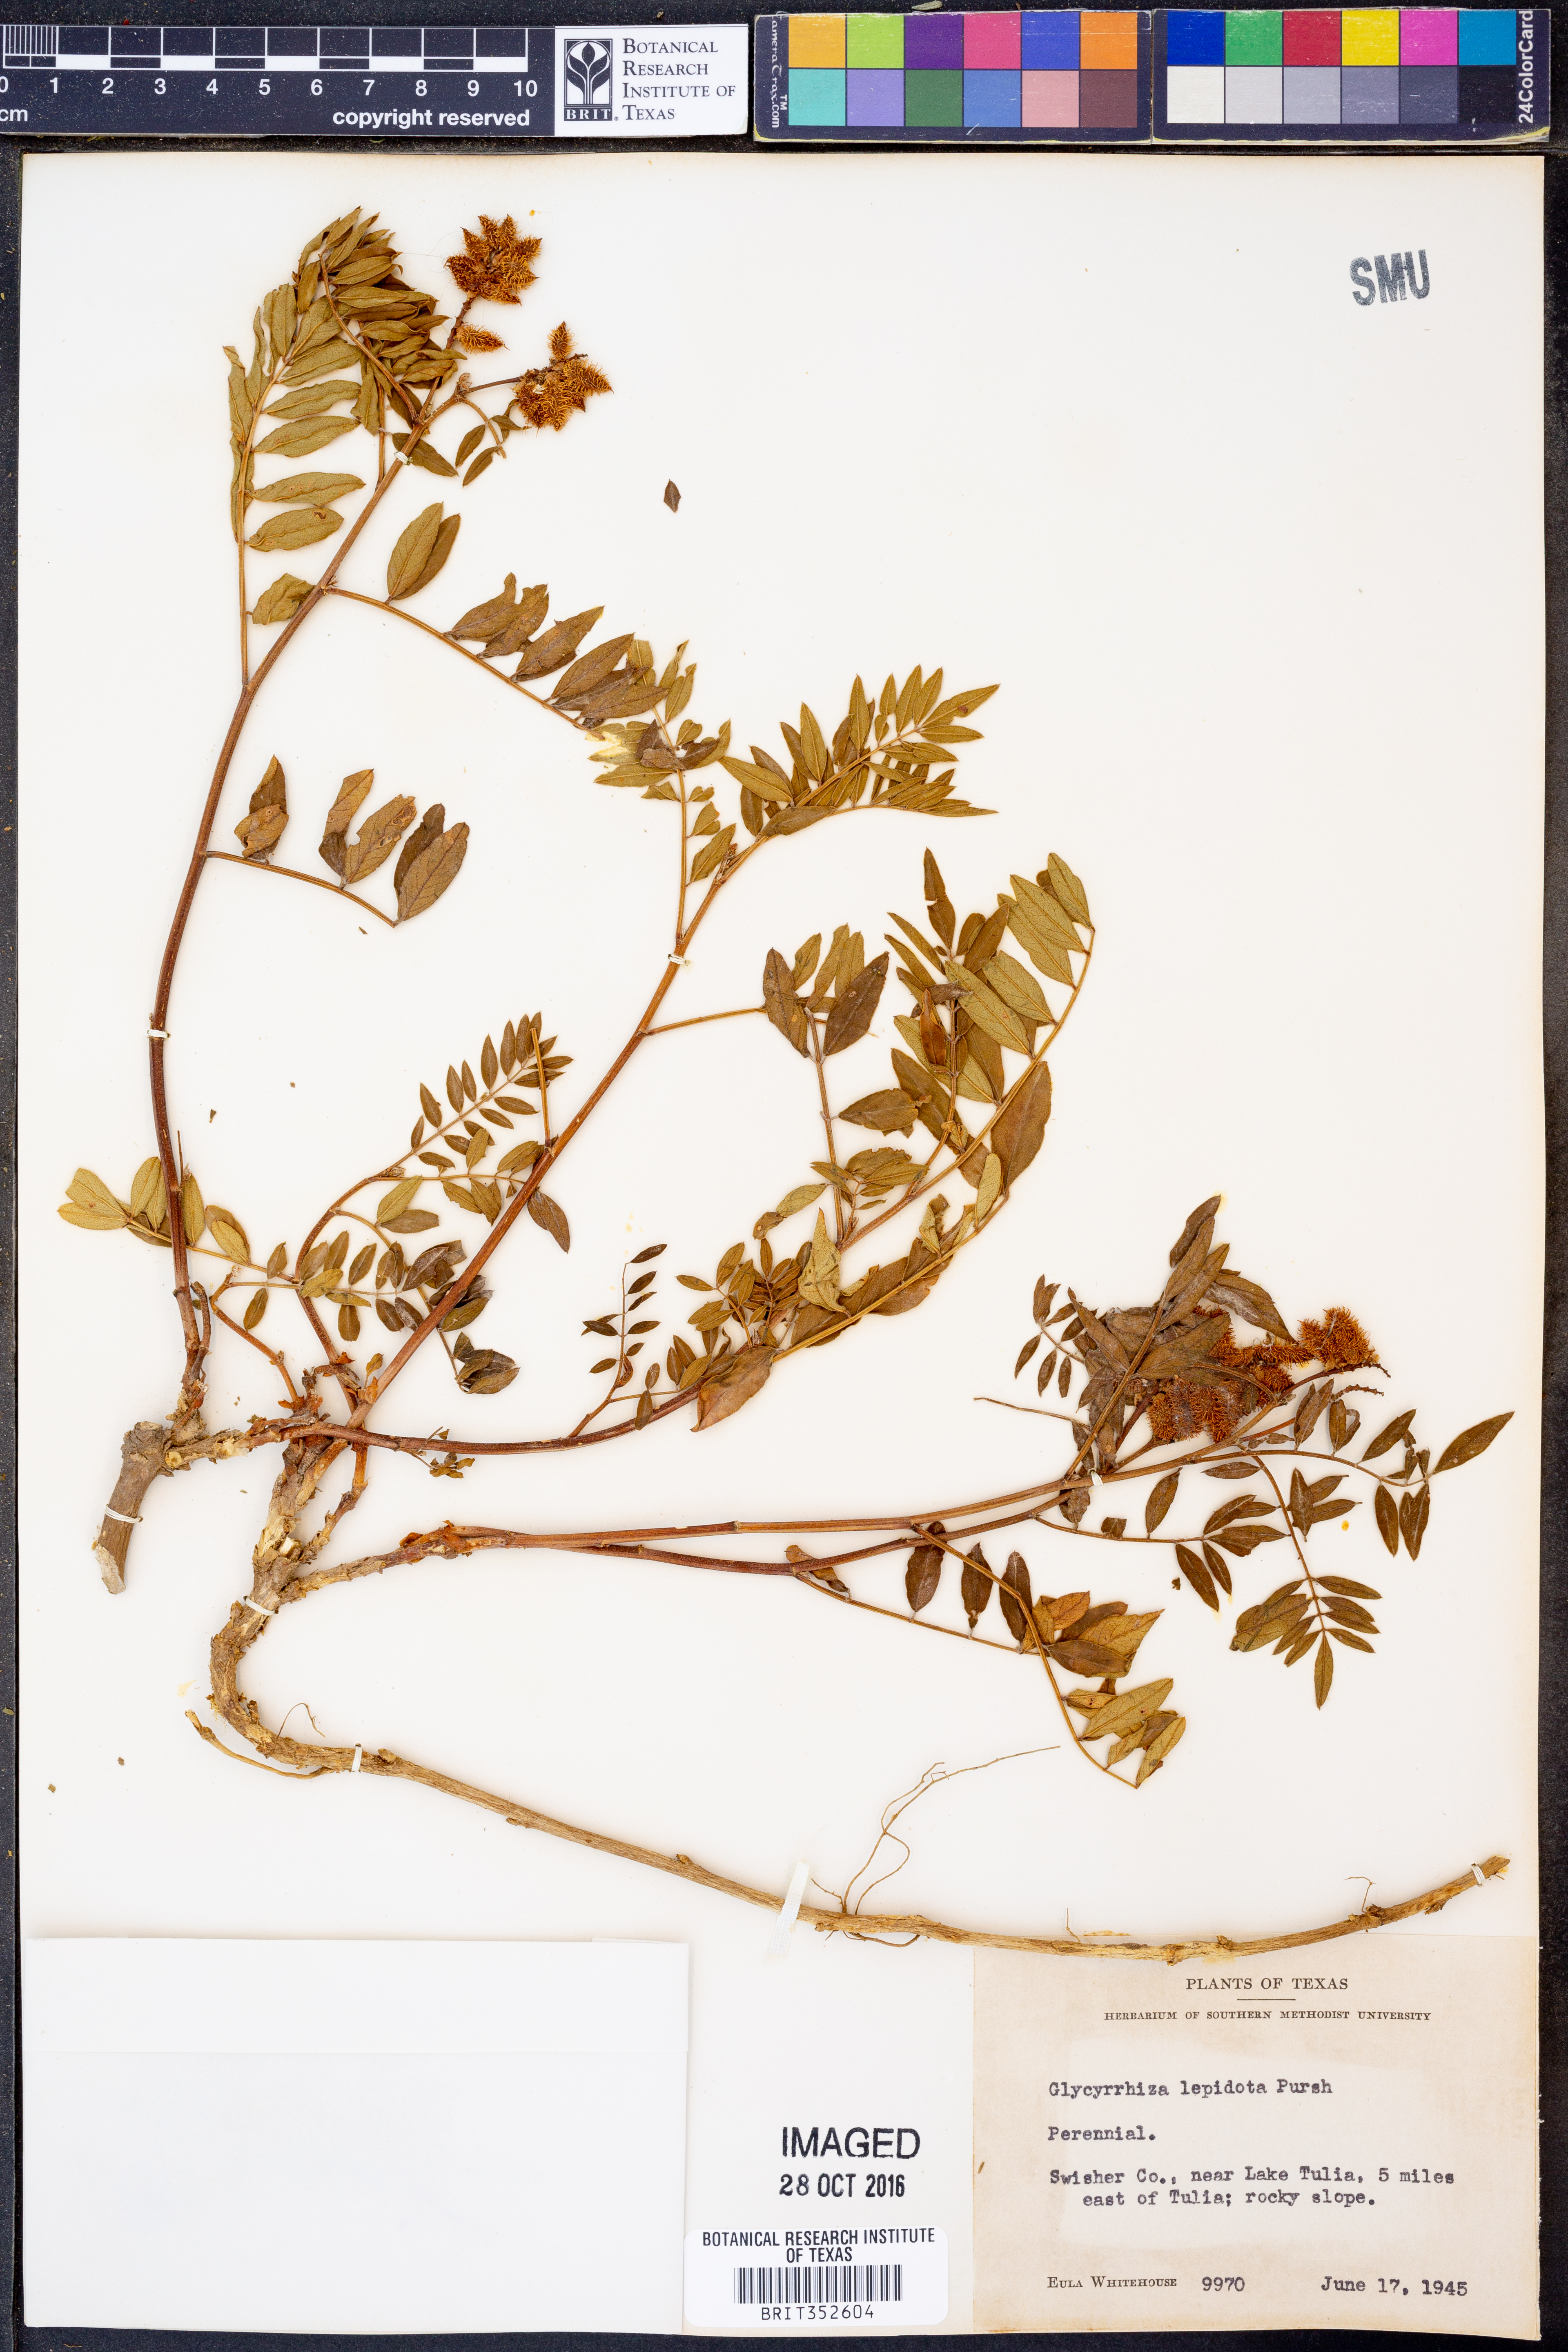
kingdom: Plantae
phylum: Tracheophyta
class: Magnoliopsida
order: Fabales
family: Fabaceae
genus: Glycyrrhiza
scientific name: Glycyrrhiza lepidota
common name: American liquorice
